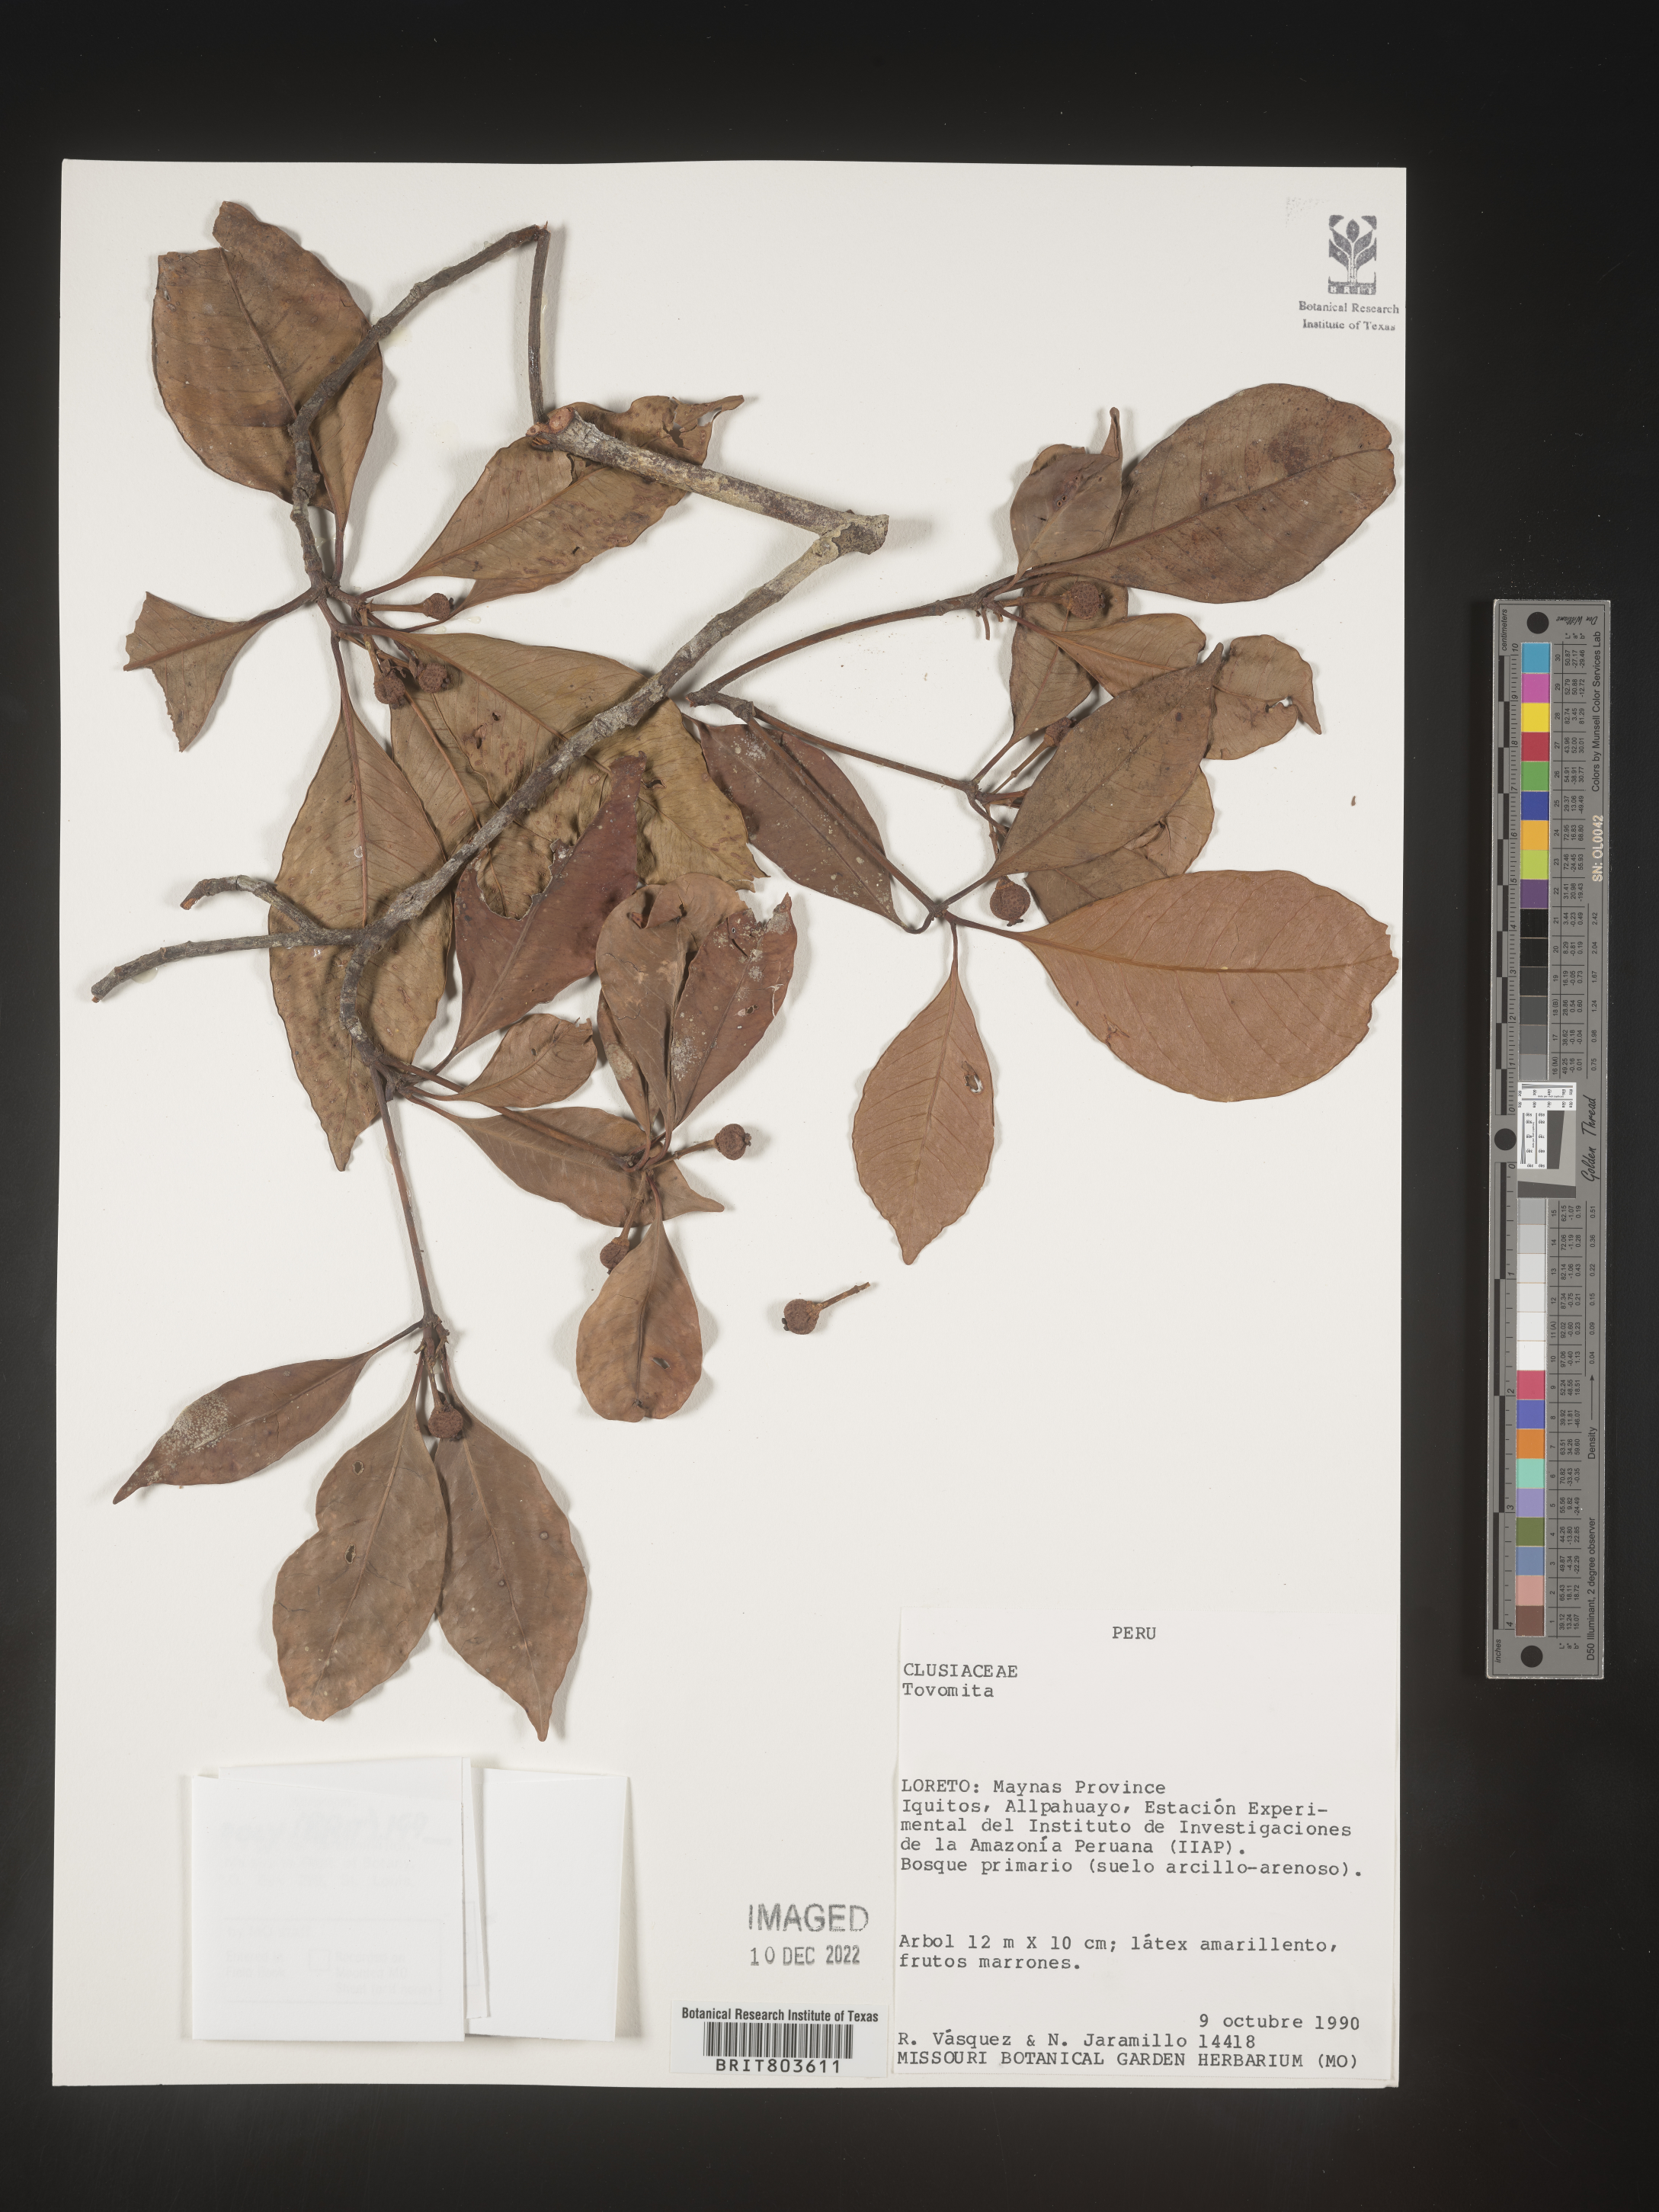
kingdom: Plantae
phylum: Tracheophyta
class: Magnoliopsida
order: Malpighiales
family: Clusiaceae
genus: Tovomita
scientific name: Tovomita
